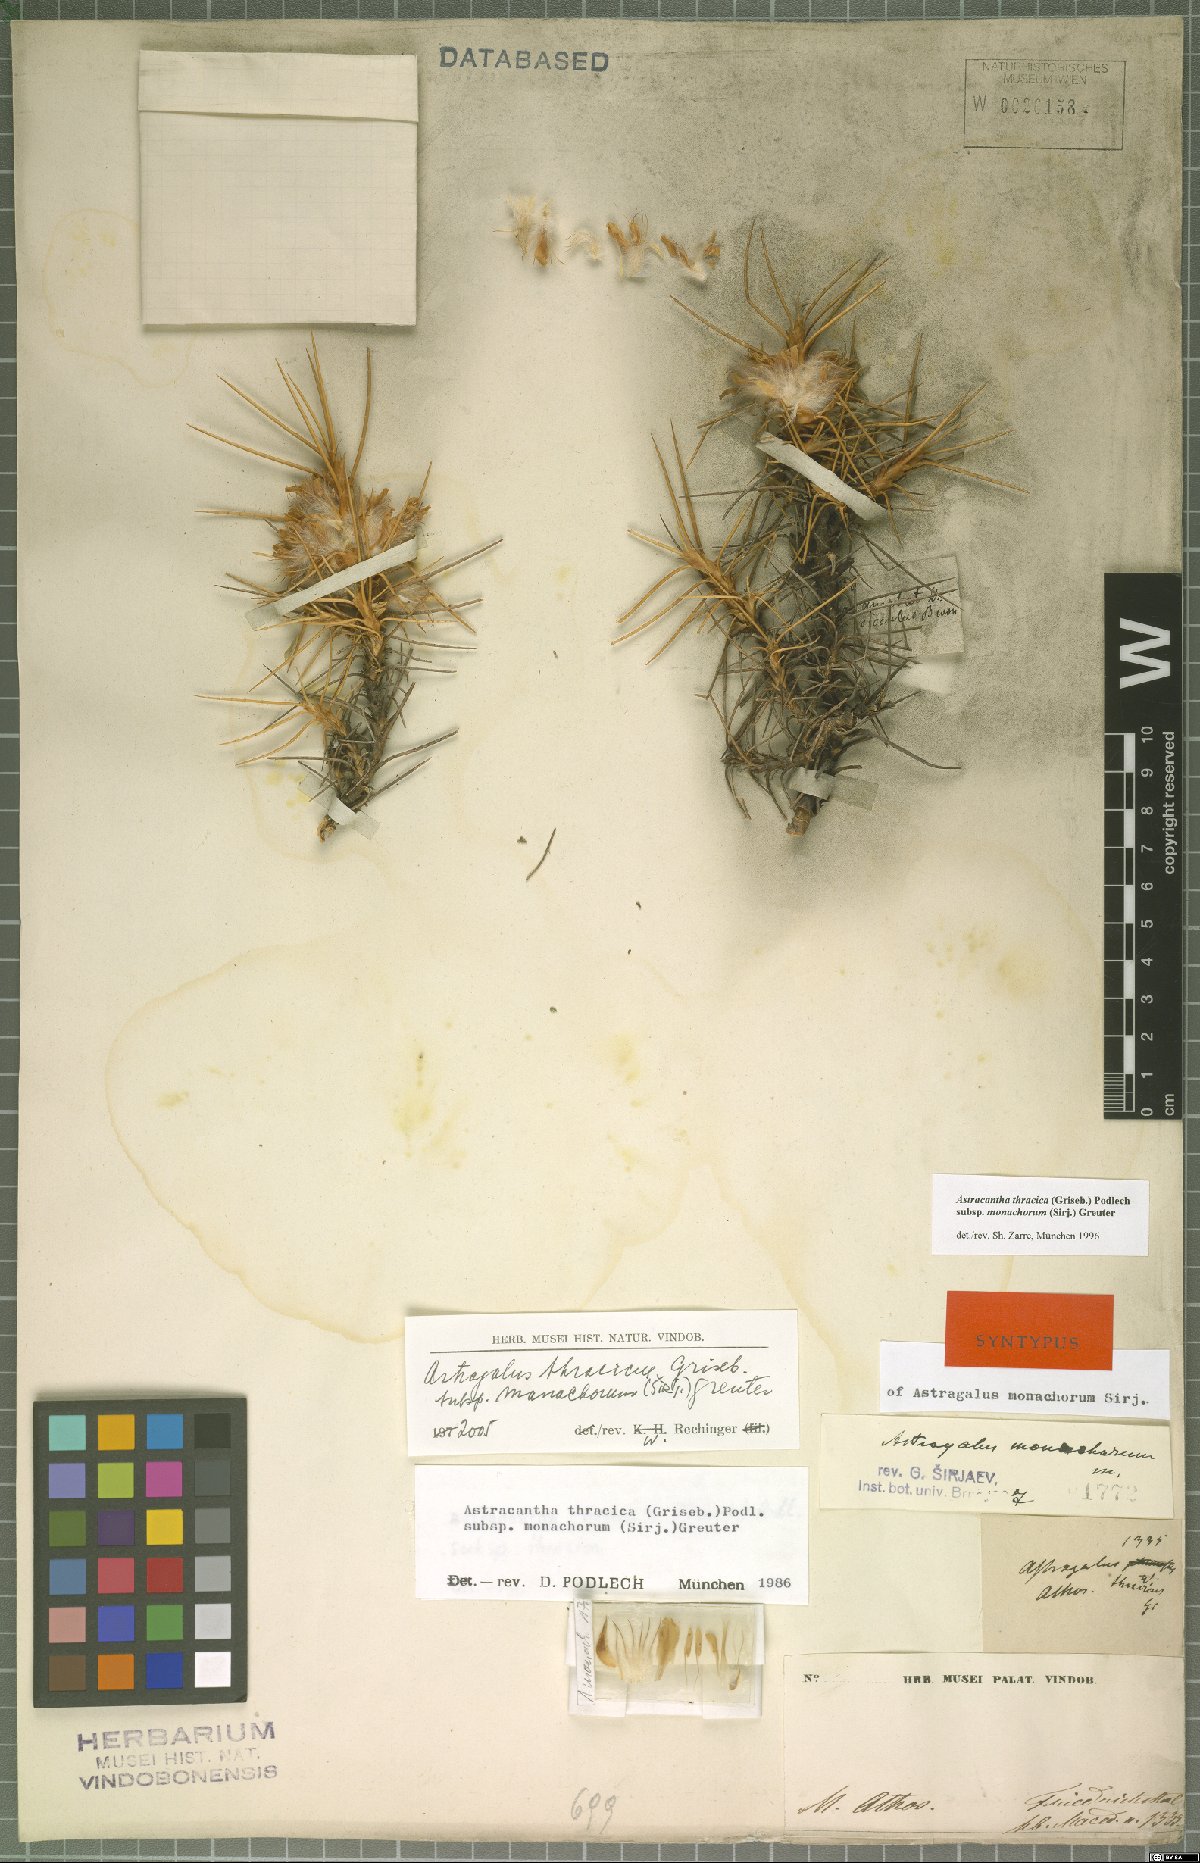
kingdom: Plantae
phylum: Tracheophyta
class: Magnoliopsida
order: Fabales
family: Fabaceae
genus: Astragalus
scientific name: Astragalus thracicus
